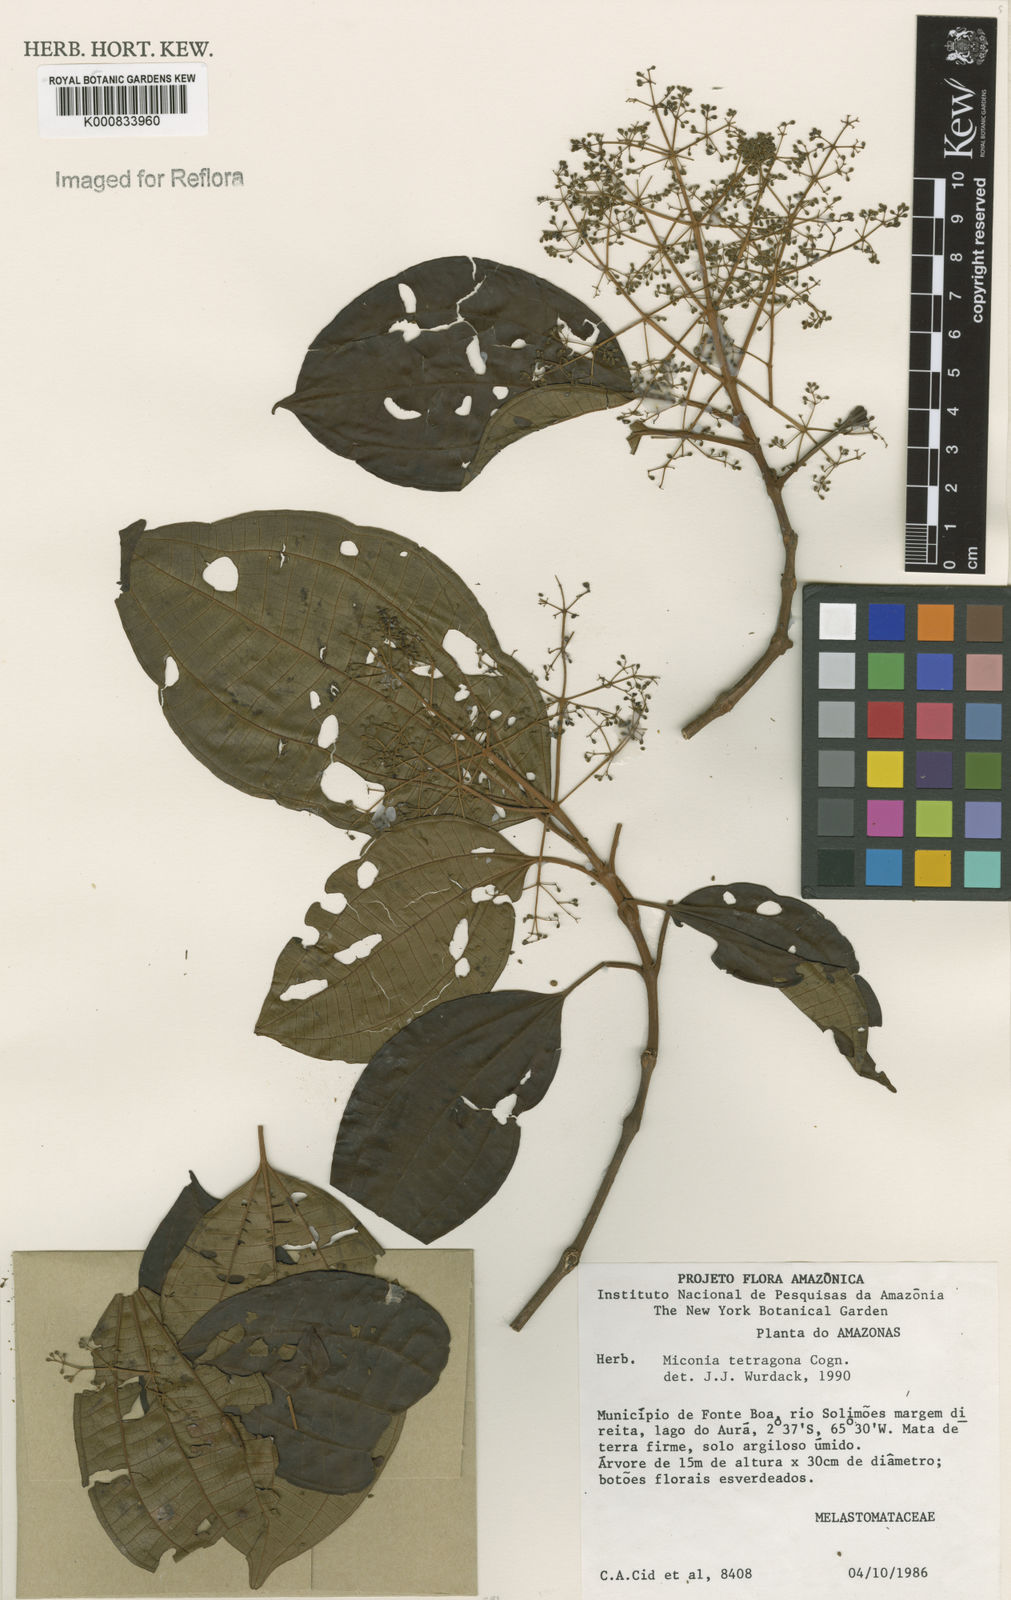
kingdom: Plantae
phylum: Tracheophyta
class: Magnoliopsida
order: Myrtales
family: Melastomataceae
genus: Miconia
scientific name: Miconia tetragona
